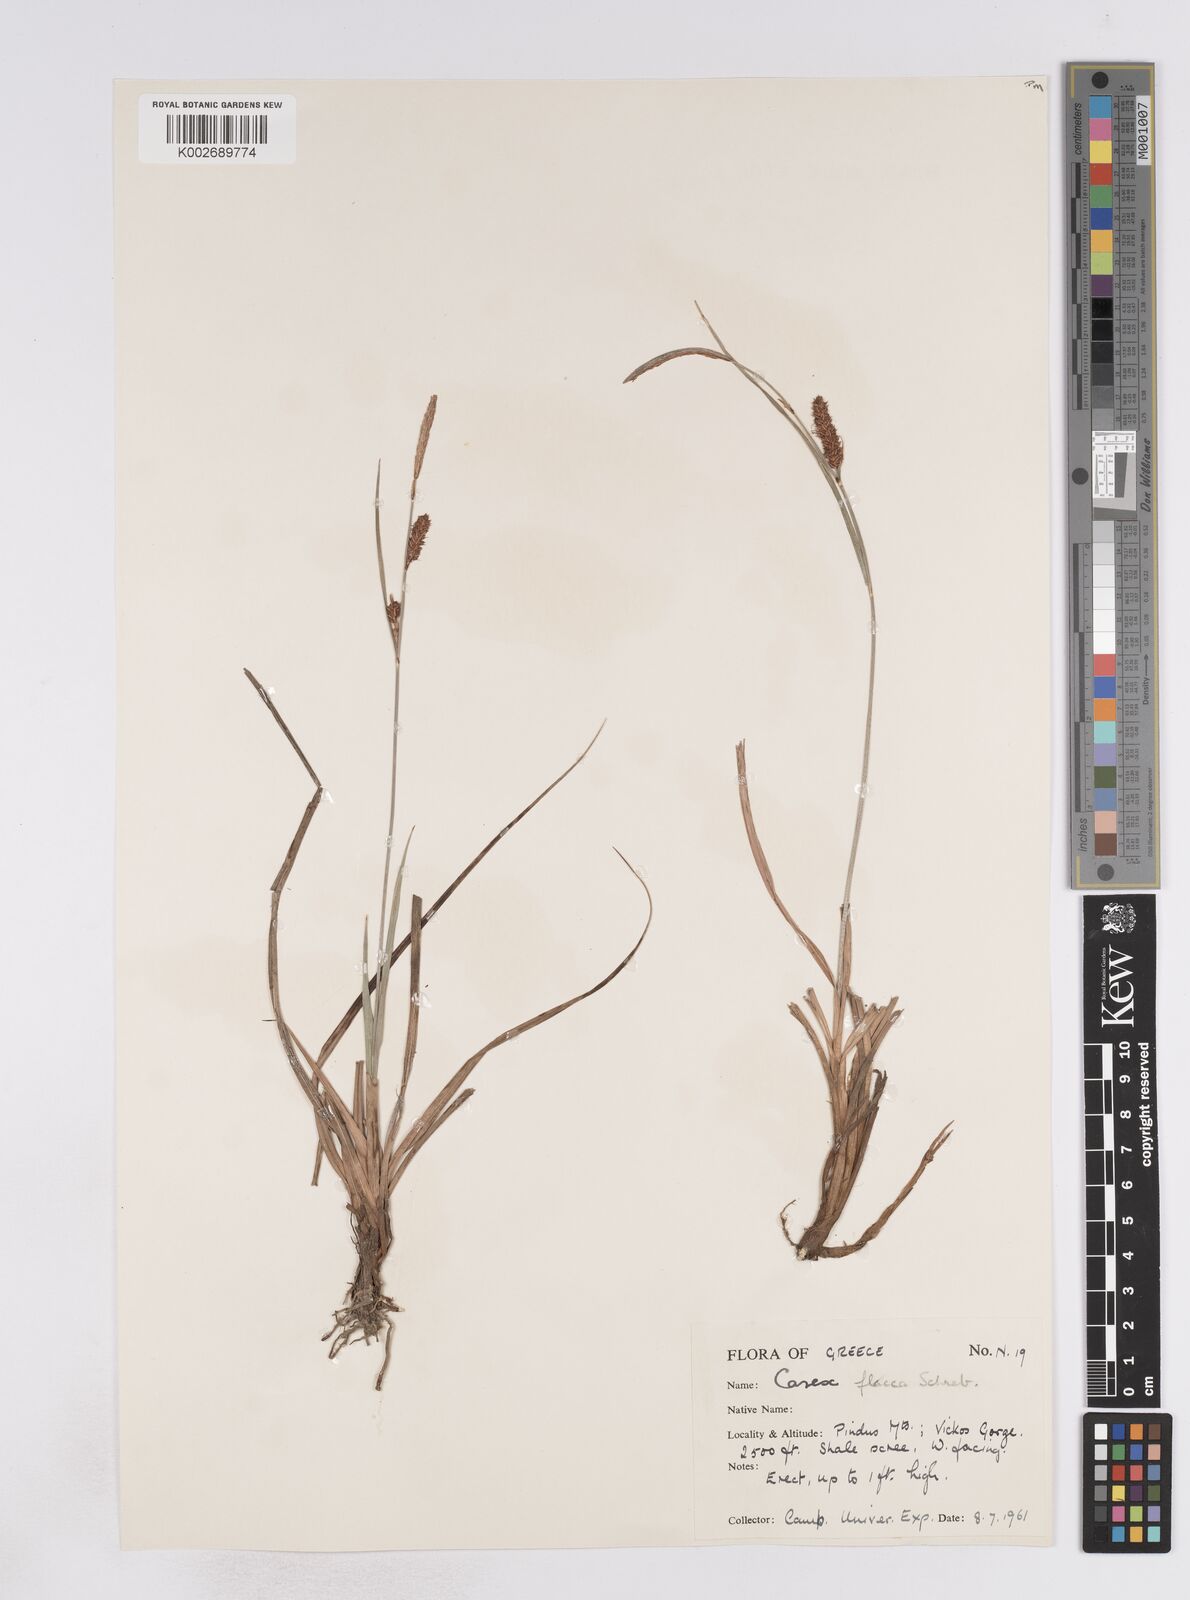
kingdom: Plantae
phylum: Tracheophyta
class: Liliopsida
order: Poales
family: Cyperaceae
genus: Carex
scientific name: Carex flacca
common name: Glaucous sedge
